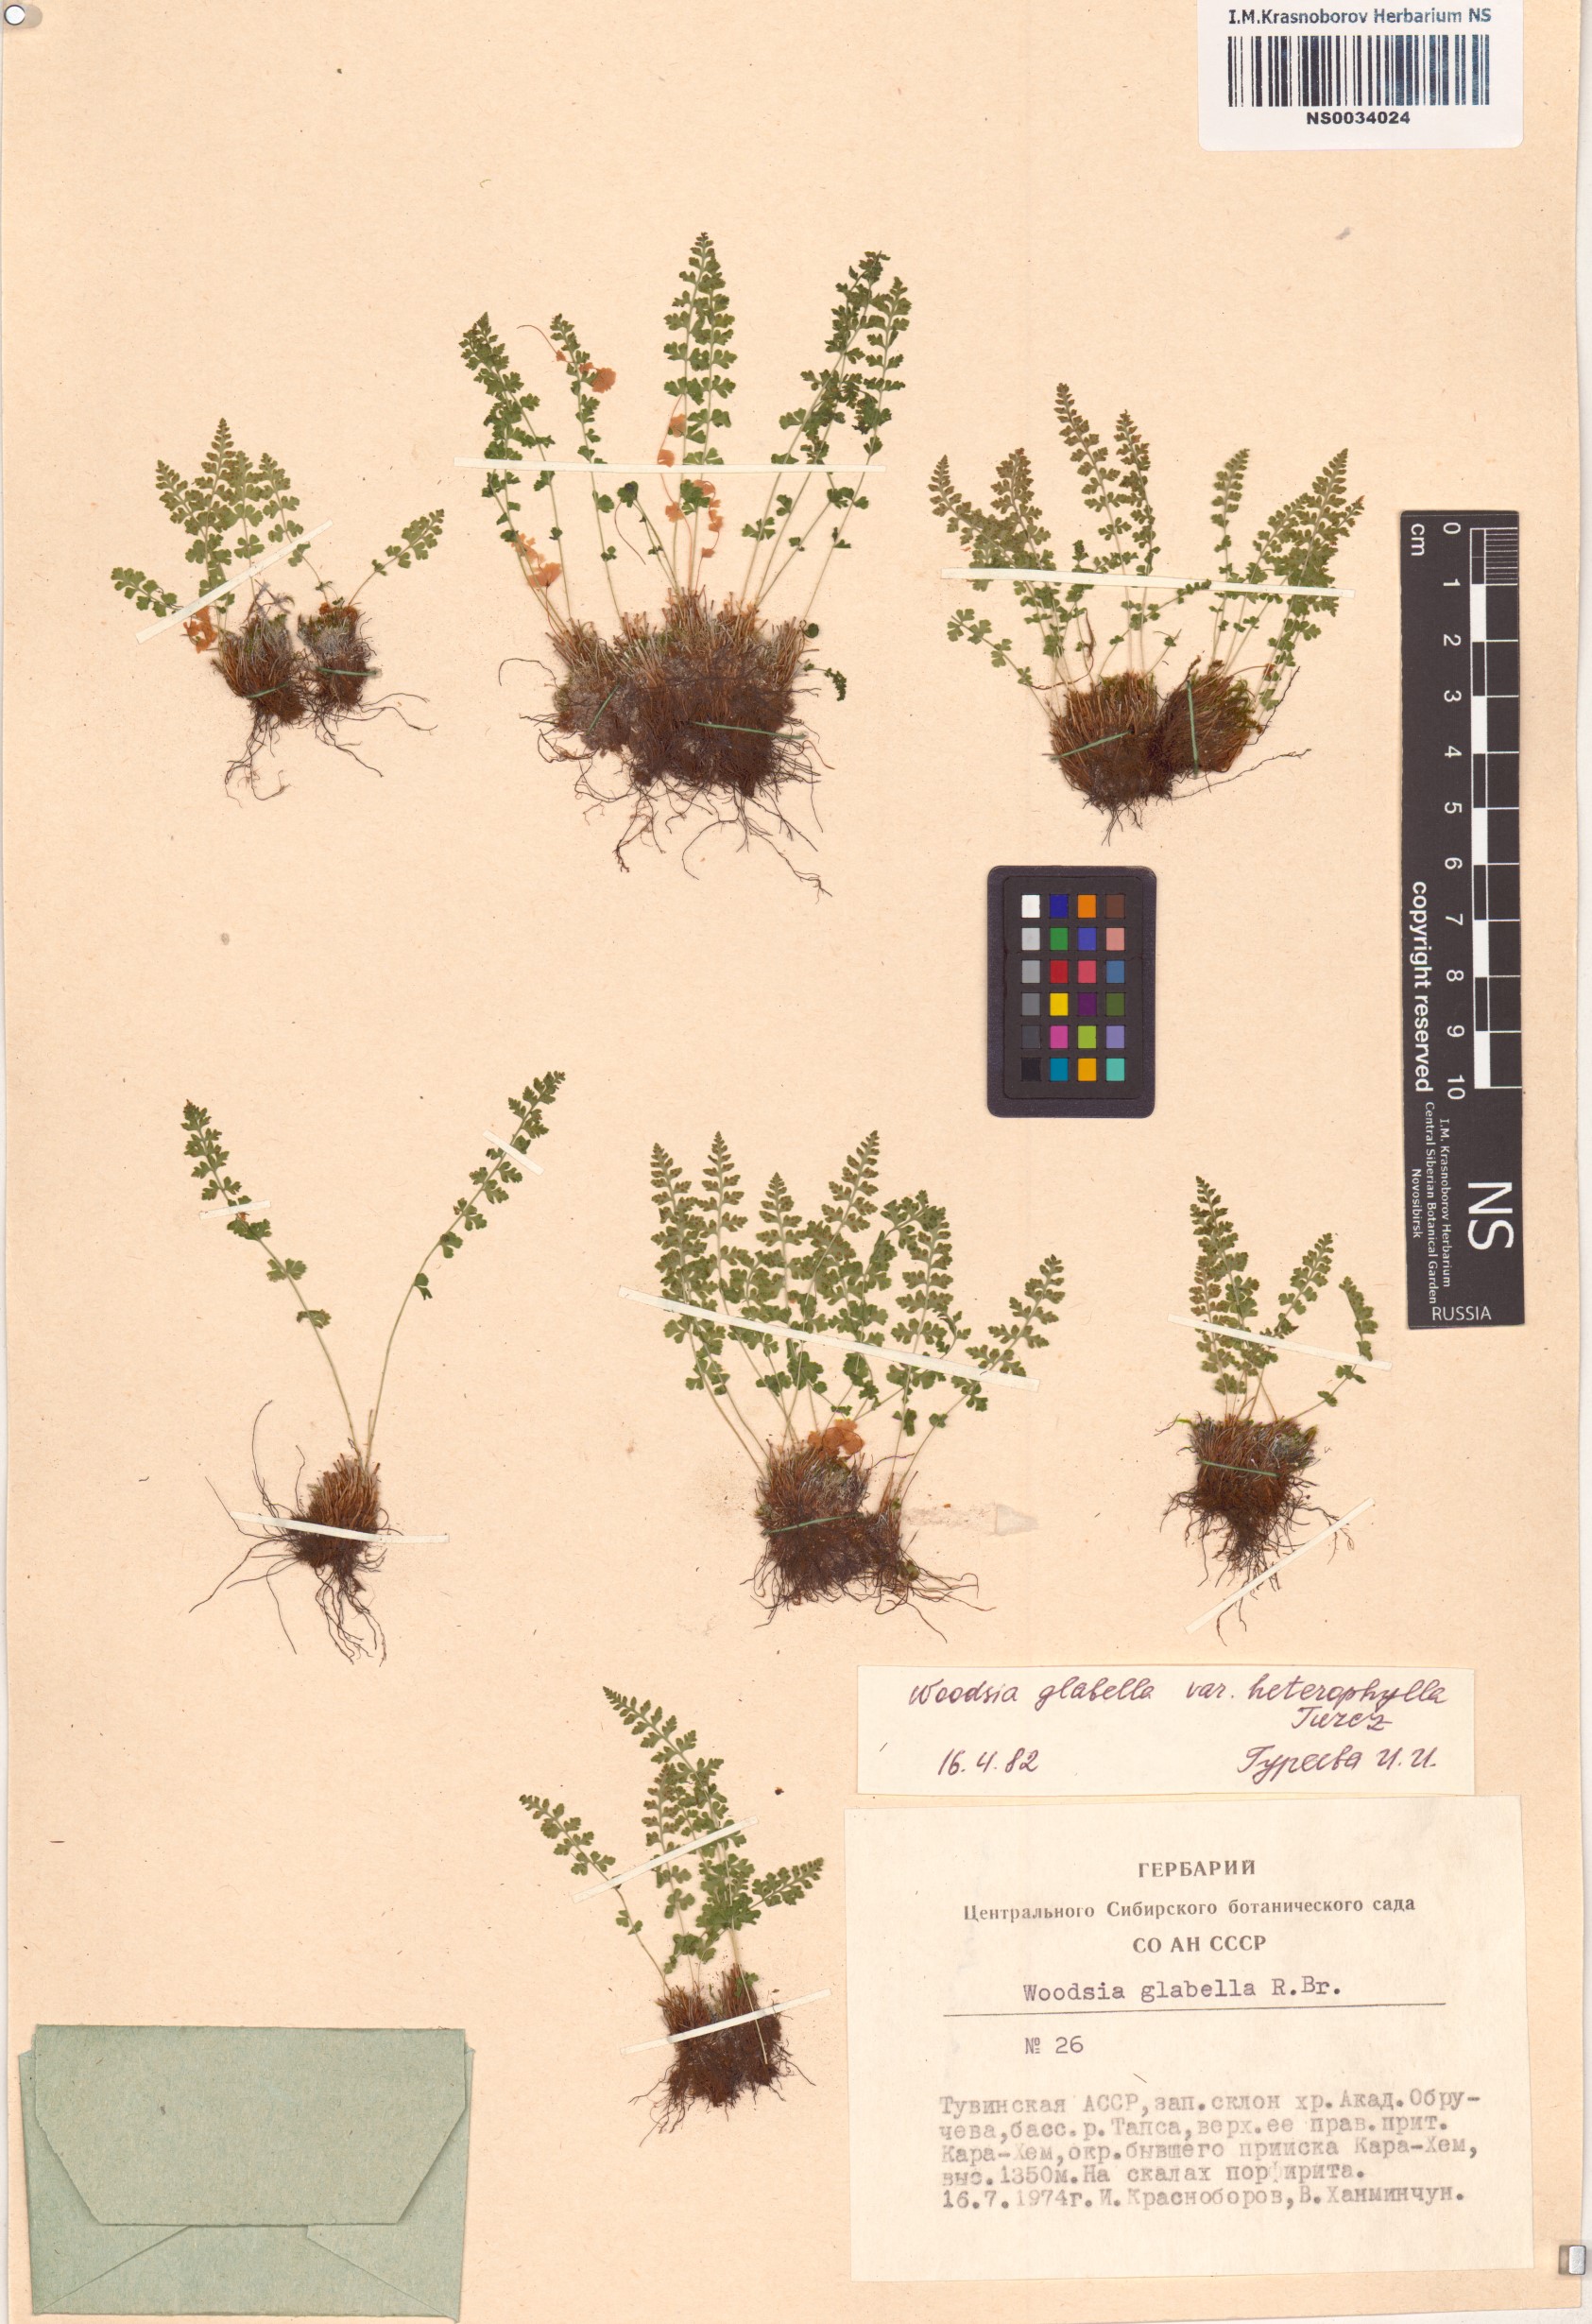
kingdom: Plantae
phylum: Tracheophyta
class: Polypodiopsida
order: Polypodiales
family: Woodsiaceae
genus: Woodsia
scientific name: Woodsia pulchella
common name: Graceful woodsia
